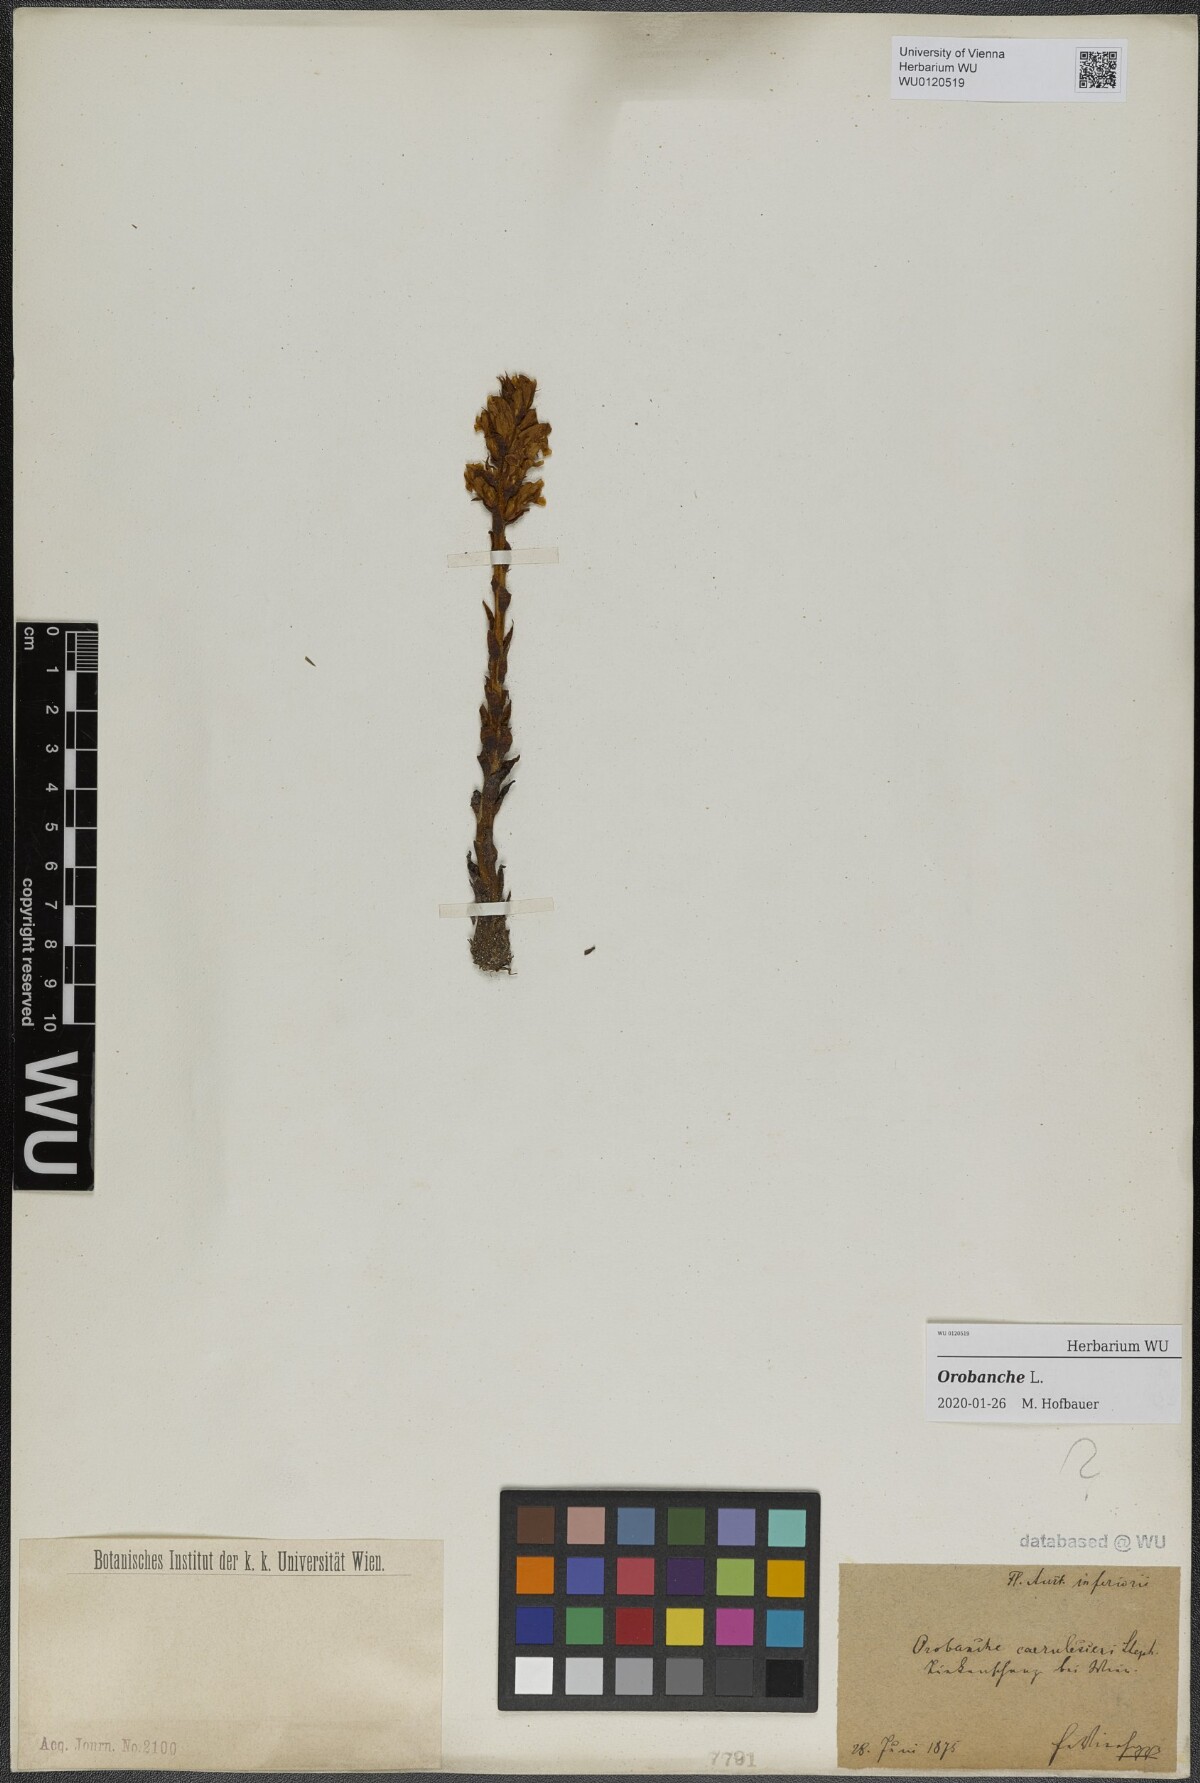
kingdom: Plantae
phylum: Tracheophyta
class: Magnoliopsida
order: Lamiales
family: Orobanchaceae
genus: Orobanche
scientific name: Orobanche
